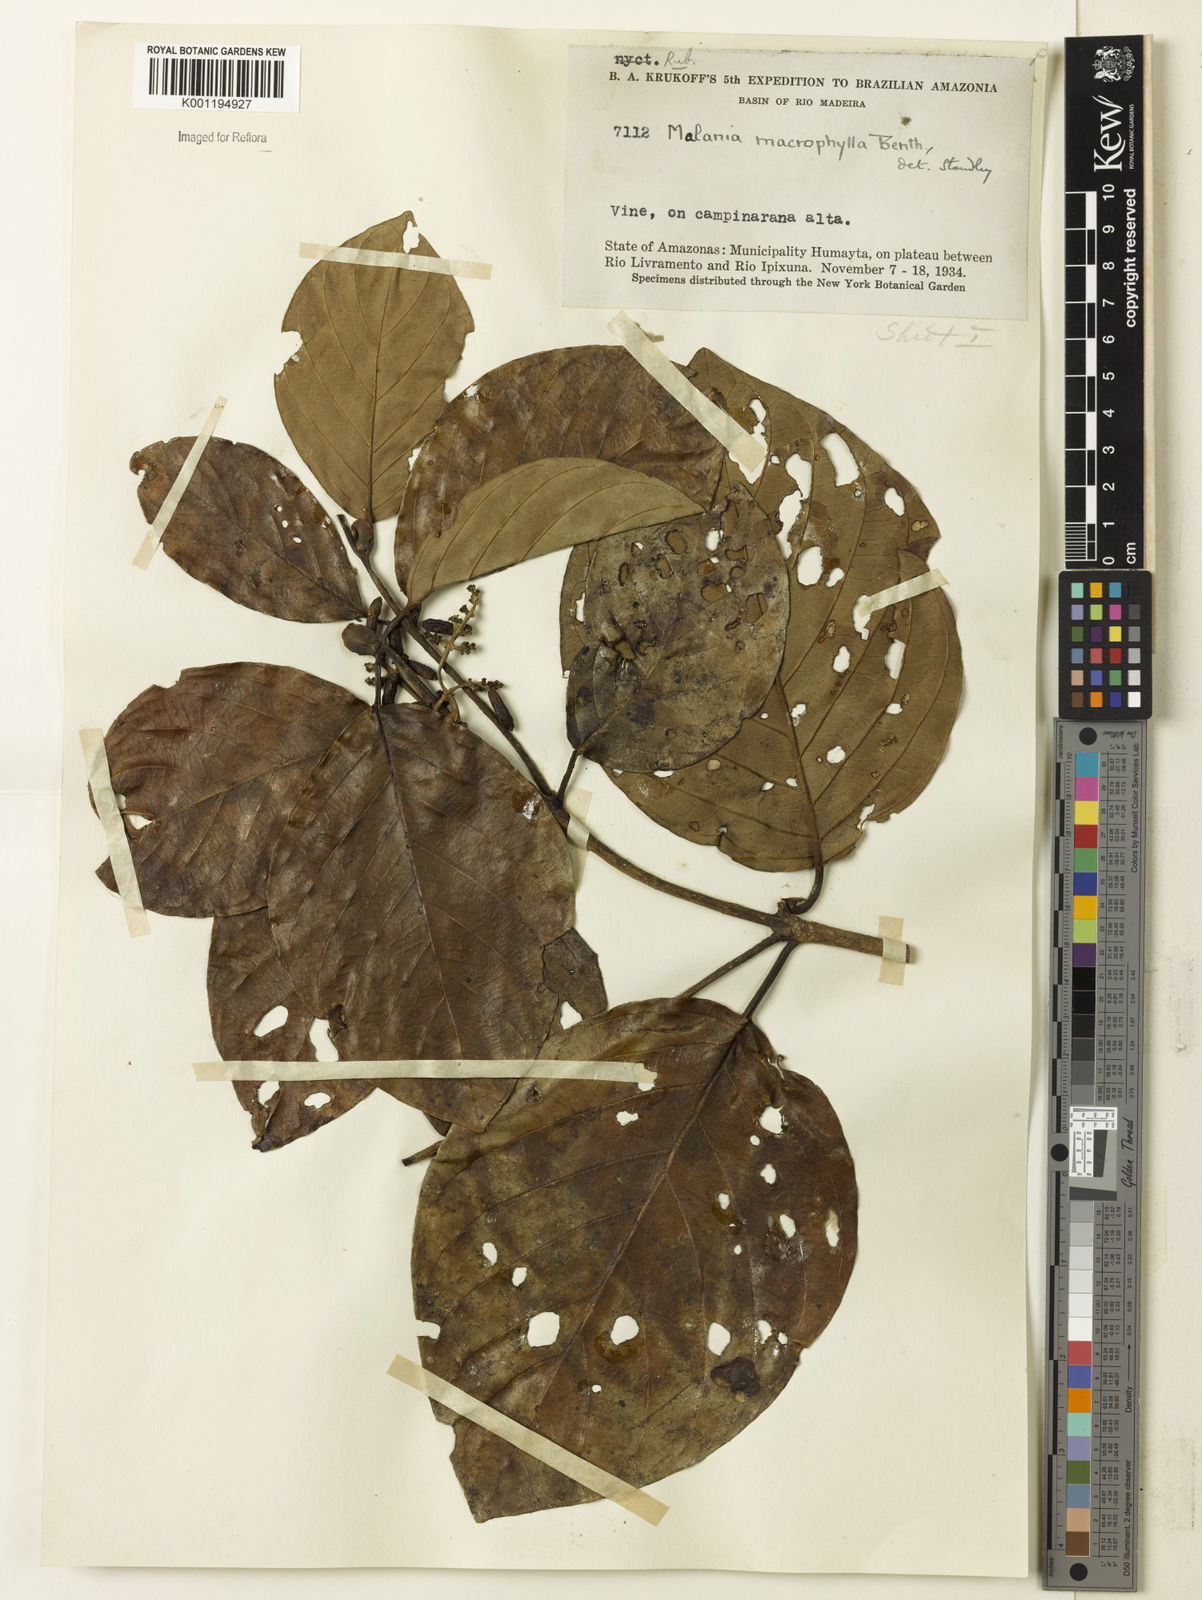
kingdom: Plantae
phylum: Tracheophyta
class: Magnoliopsida
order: Gentianales
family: Rubiaceae
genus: Malanea
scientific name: Malanea glabra
